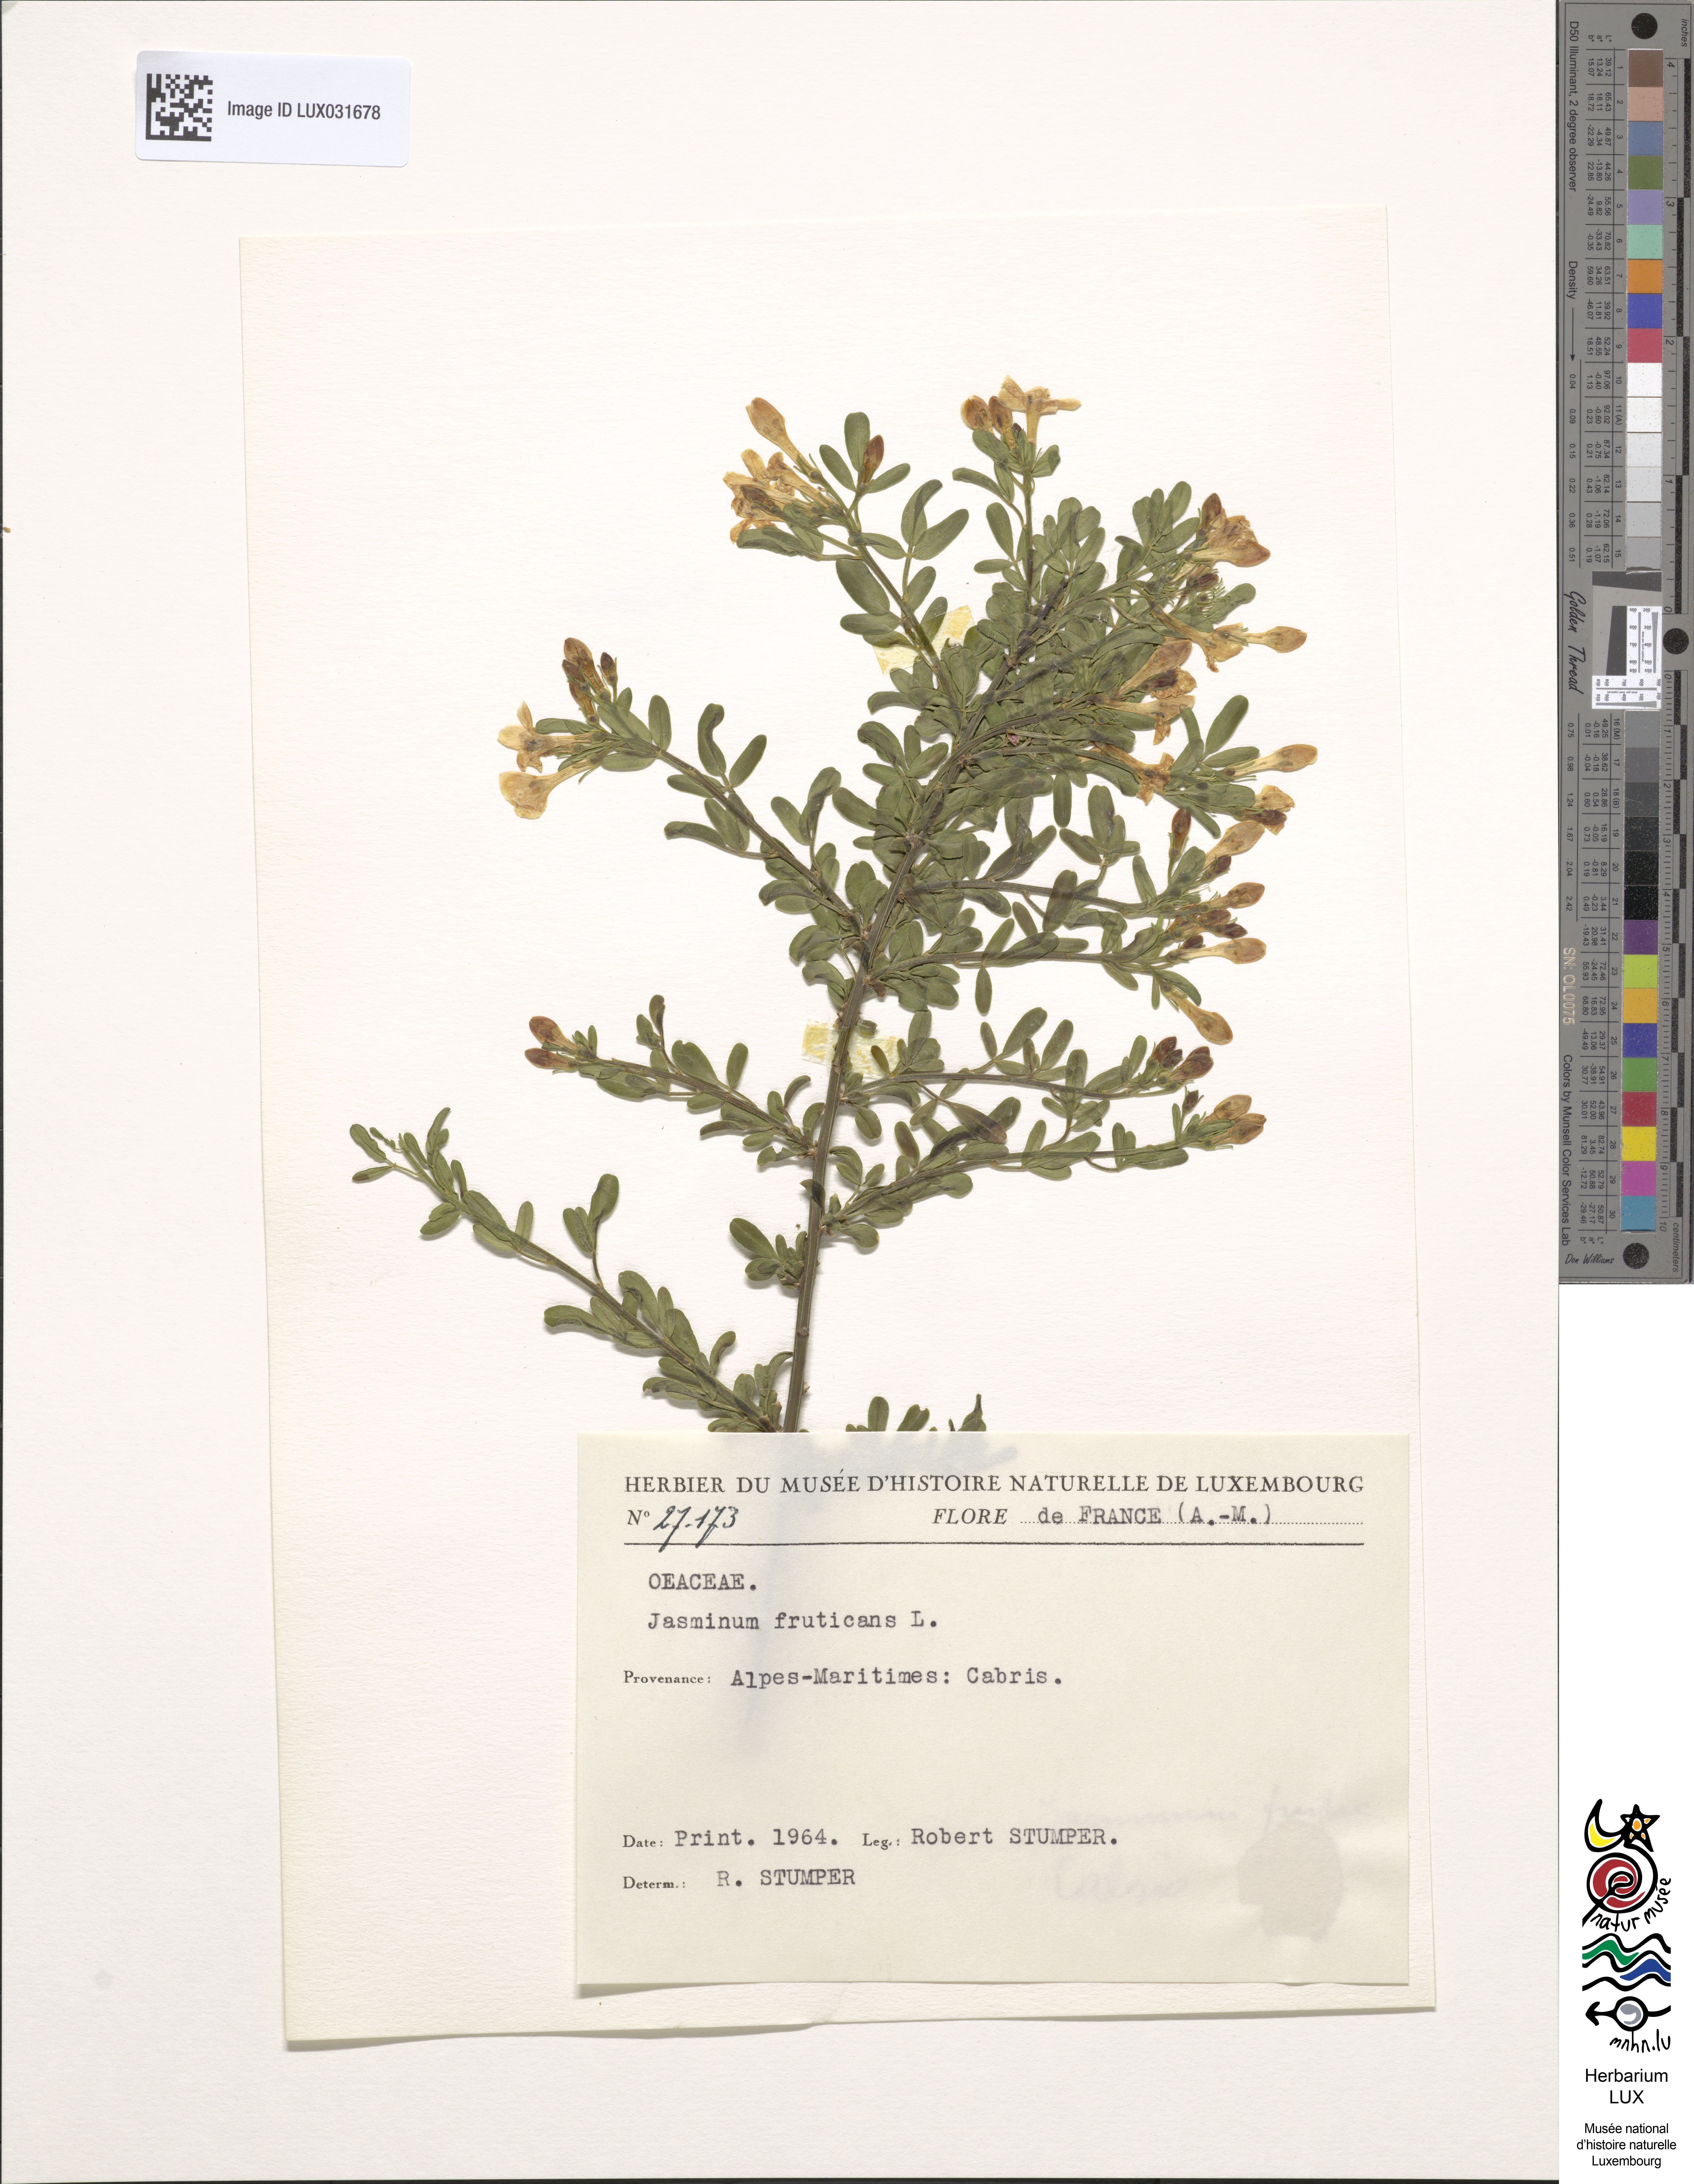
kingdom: Plantae
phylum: Tracheophyta
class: Magnoliopsida
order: Lamiales
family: Oleaceae
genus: Chrysojasminum
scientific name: Chrysojasminum fruticans
